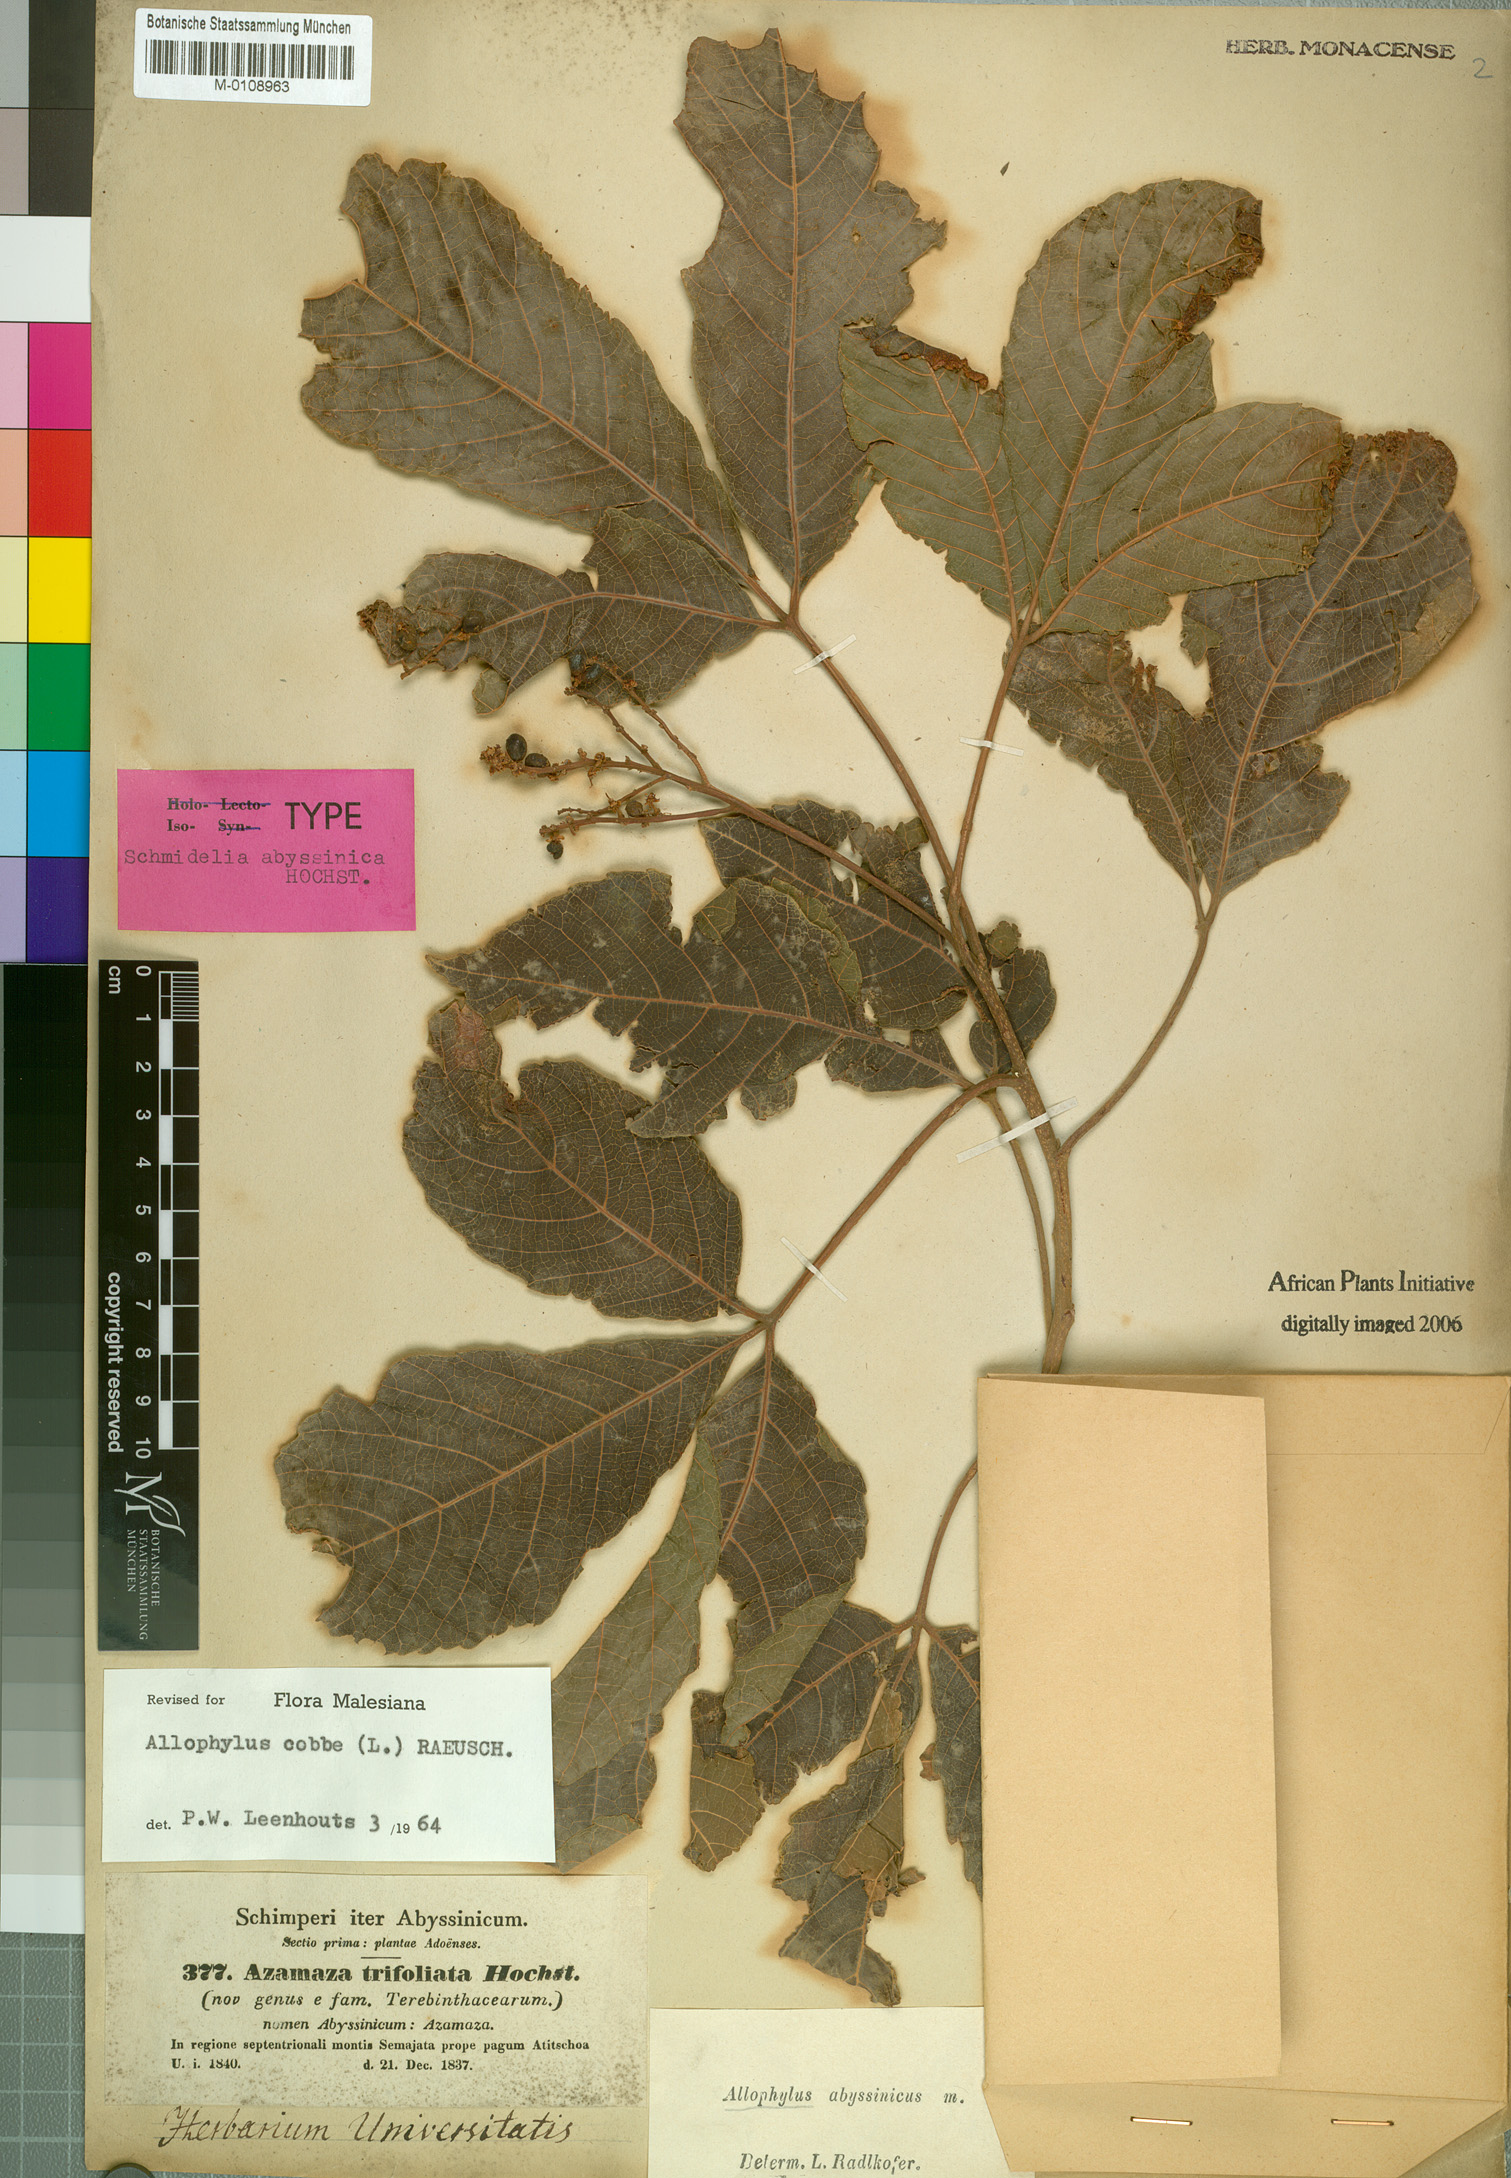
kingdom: Plantae
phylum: Tracheophyta
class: Magnoliopsida
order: Sapindales
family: Sapindaceae
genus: Allophylus
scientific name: Allophylus abyssinicus
